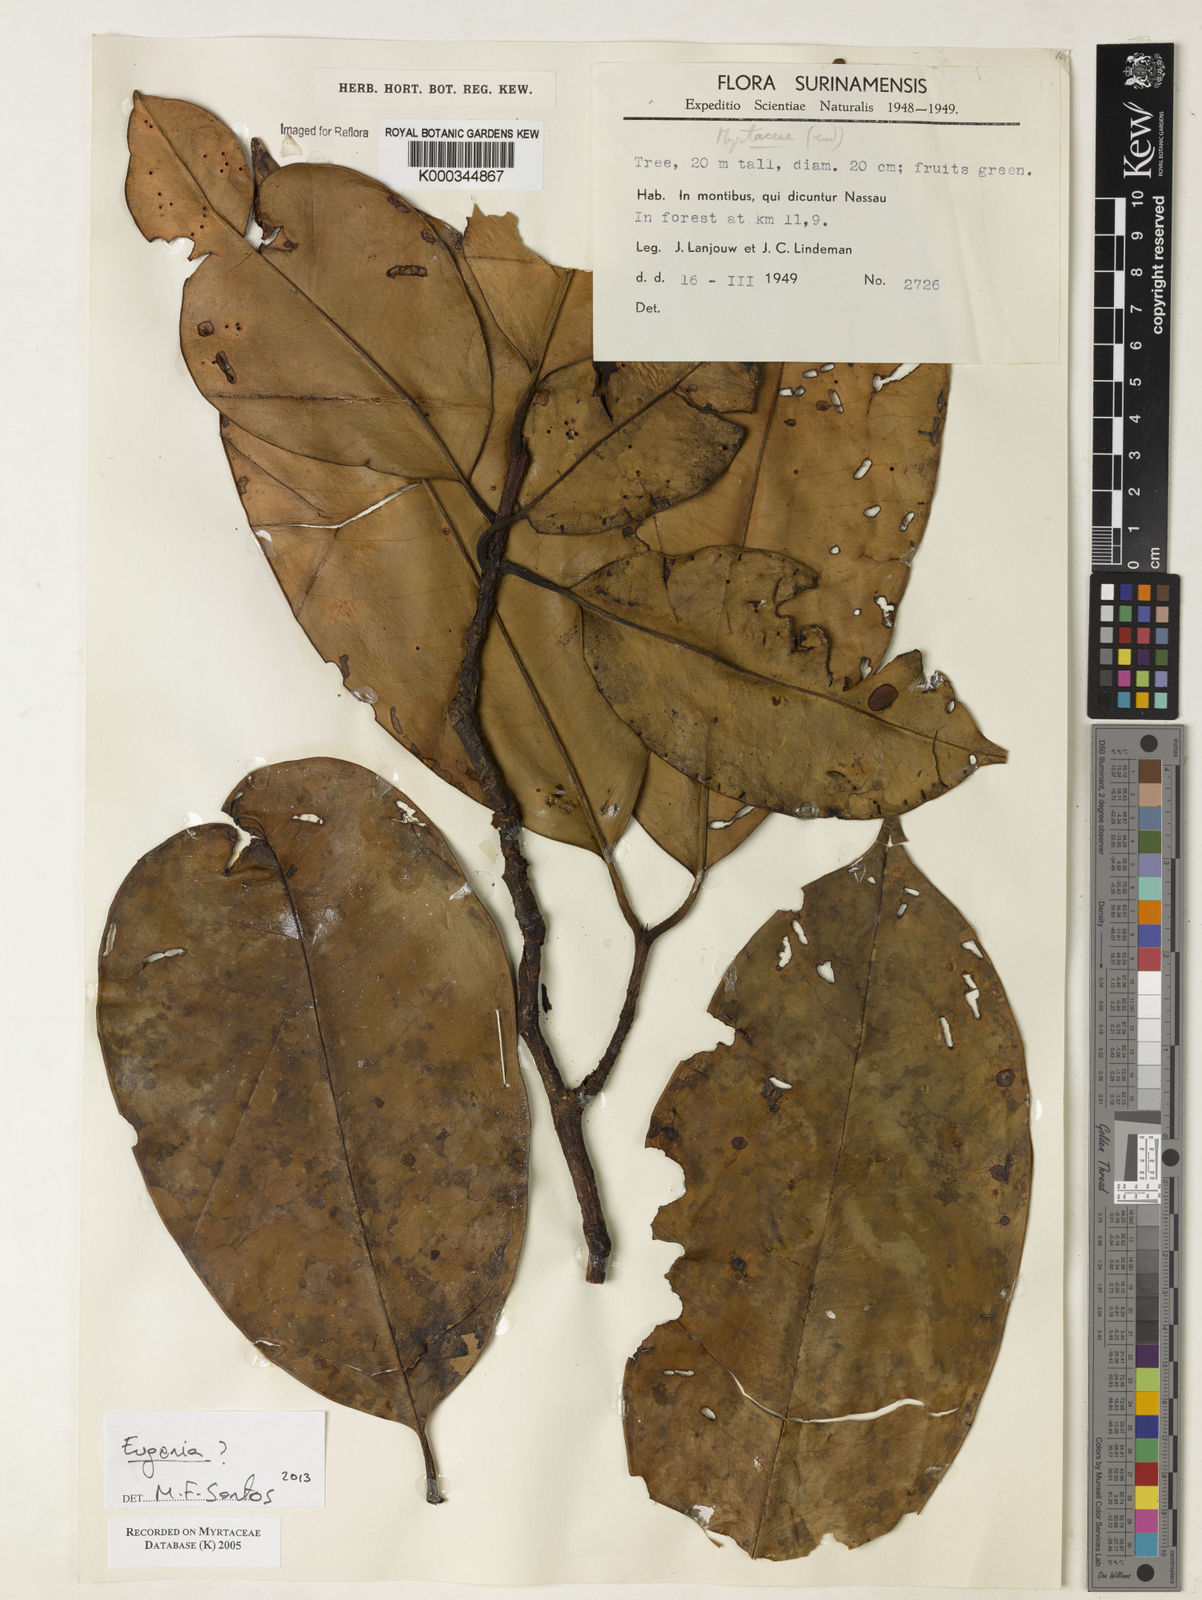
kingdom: Plantae
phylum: Tracheophyta
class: Magnoliopsida
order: Myrtales
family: Myrtaceae
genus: Myrcia
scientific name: Myrcia
